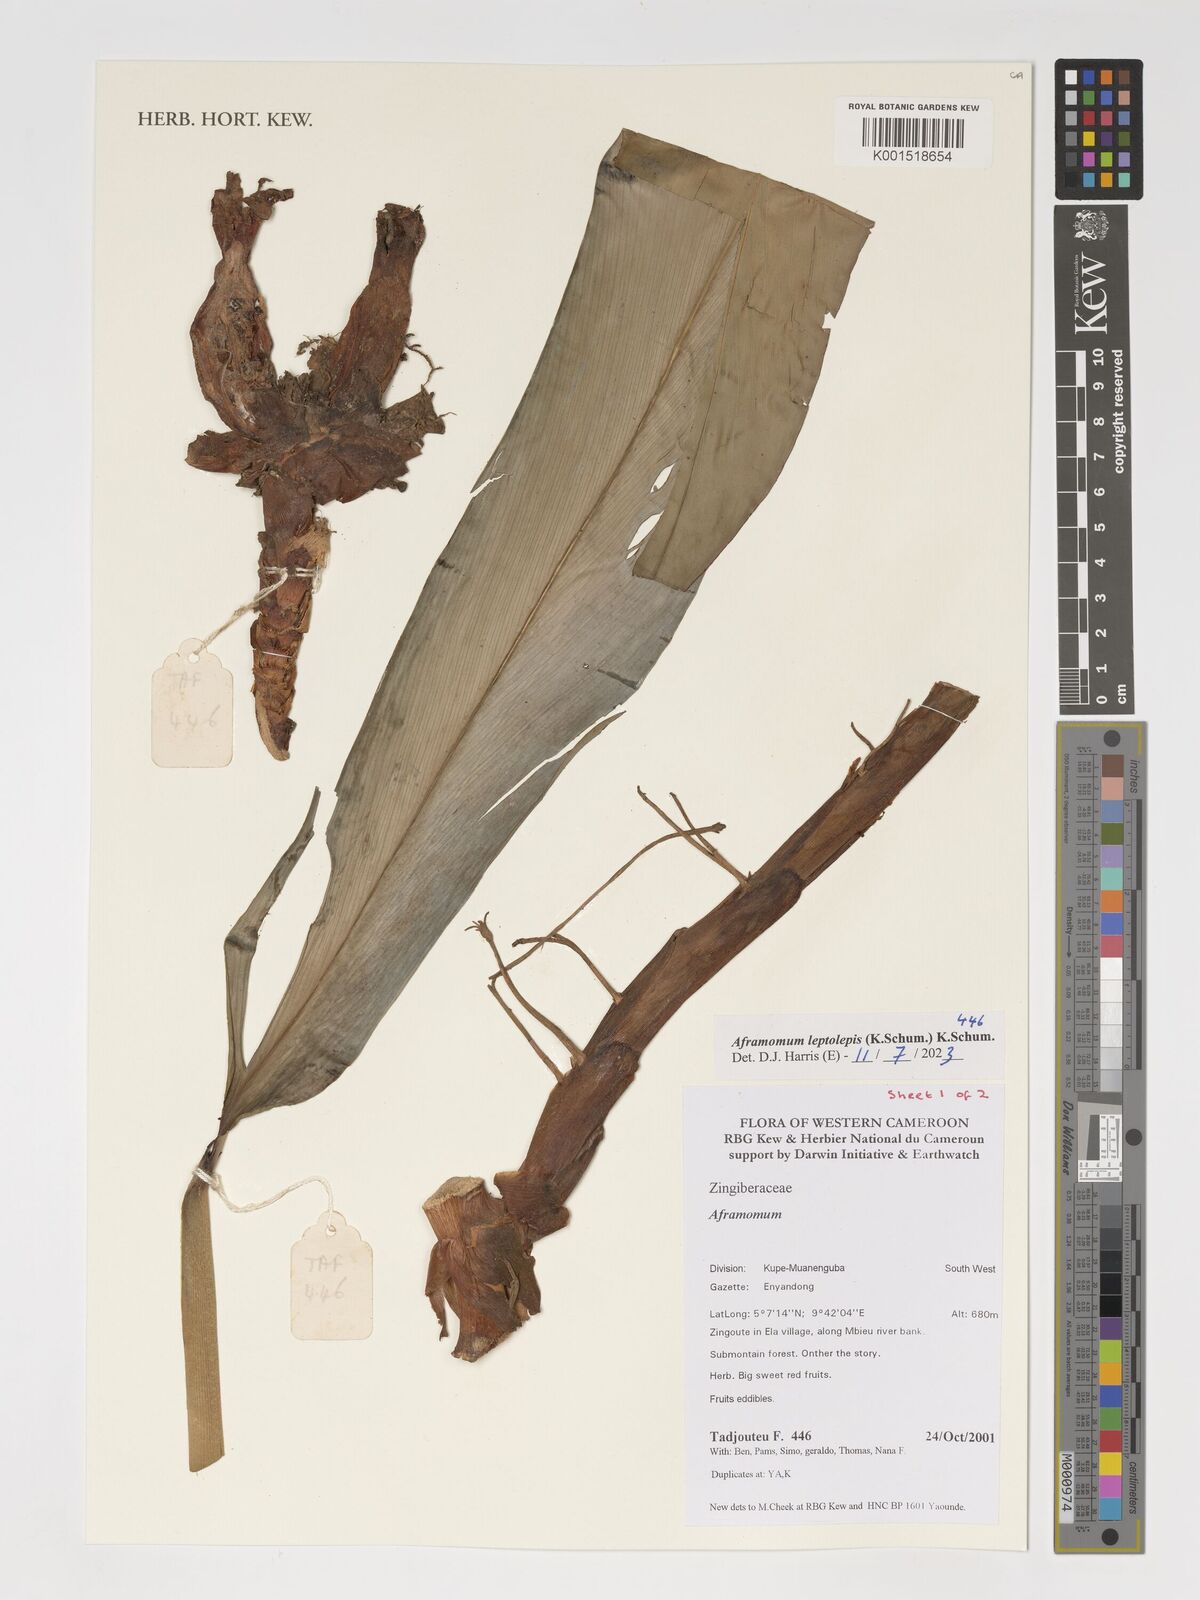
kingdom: Plantae
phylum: Tracheophyta
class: Liliopsida
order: Zingiberales
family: Zingiberaceae
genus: Aframomum
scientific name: Aframomum leptolepis
